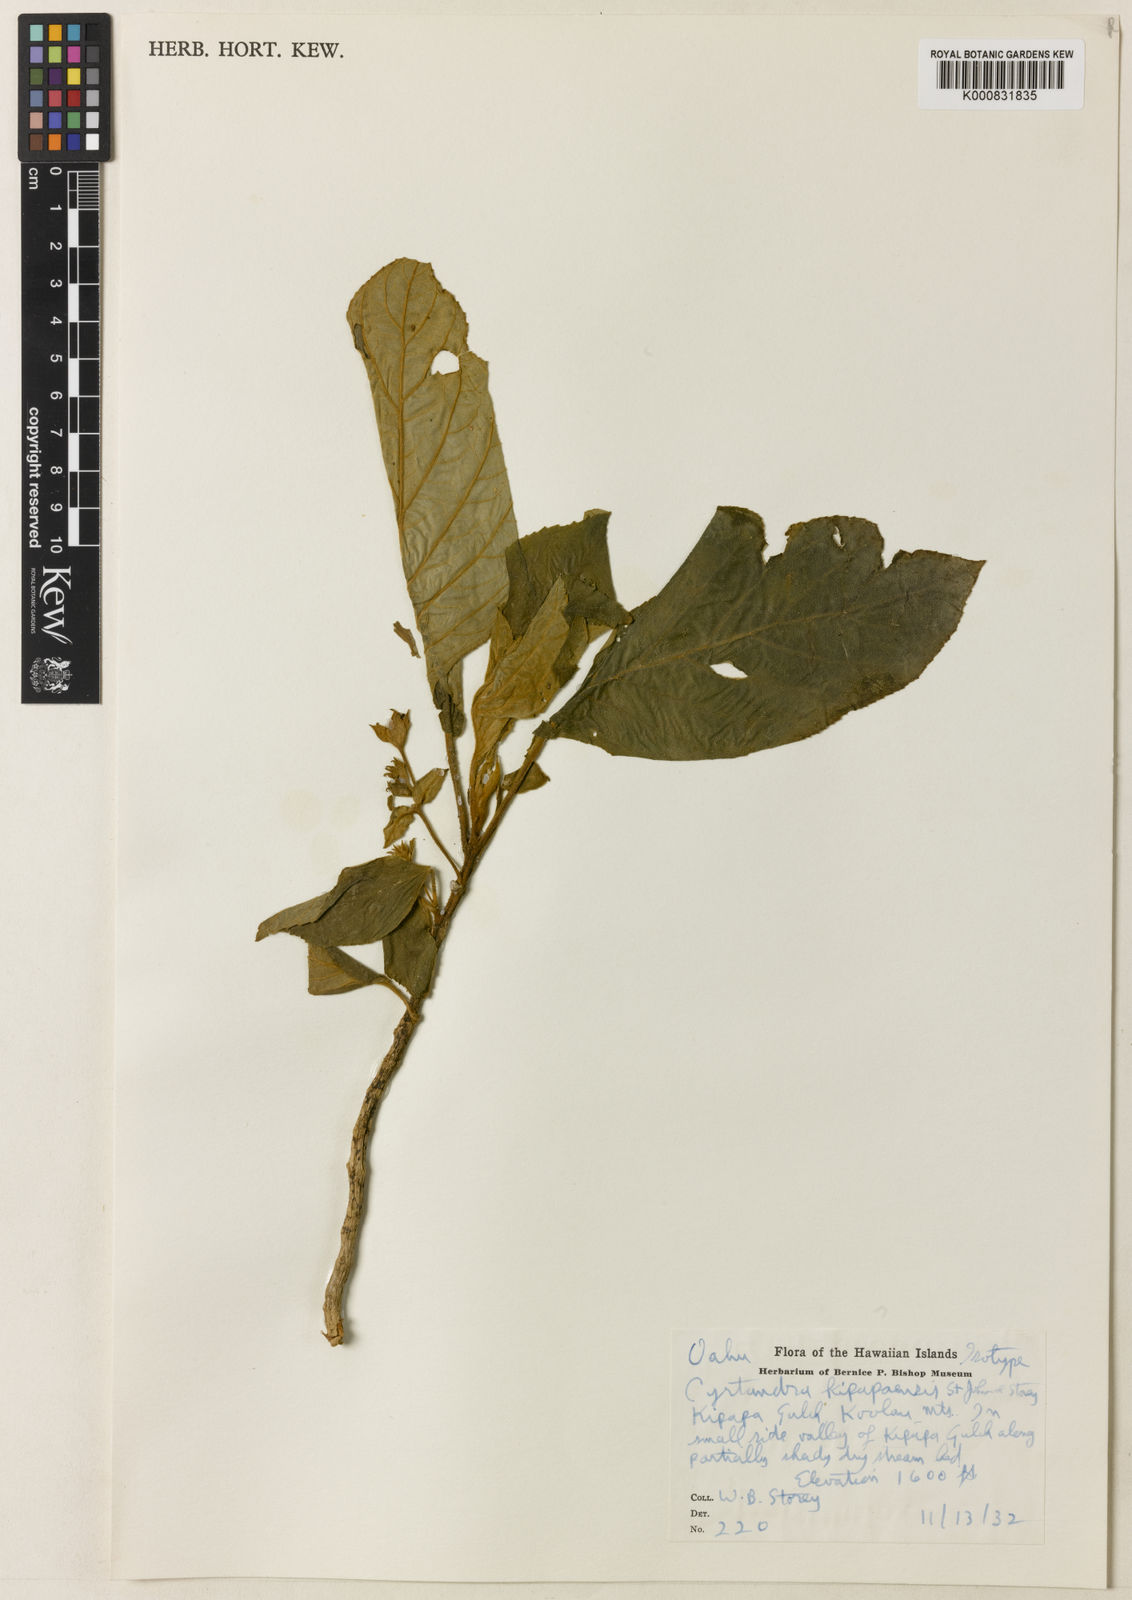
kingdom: Plantae
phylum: Tracheophyta
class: Magnoliopsida
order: Lamiales
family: Gesneriaceae
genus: Cyrtandra
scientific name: Cyrtandra kipapaensis
